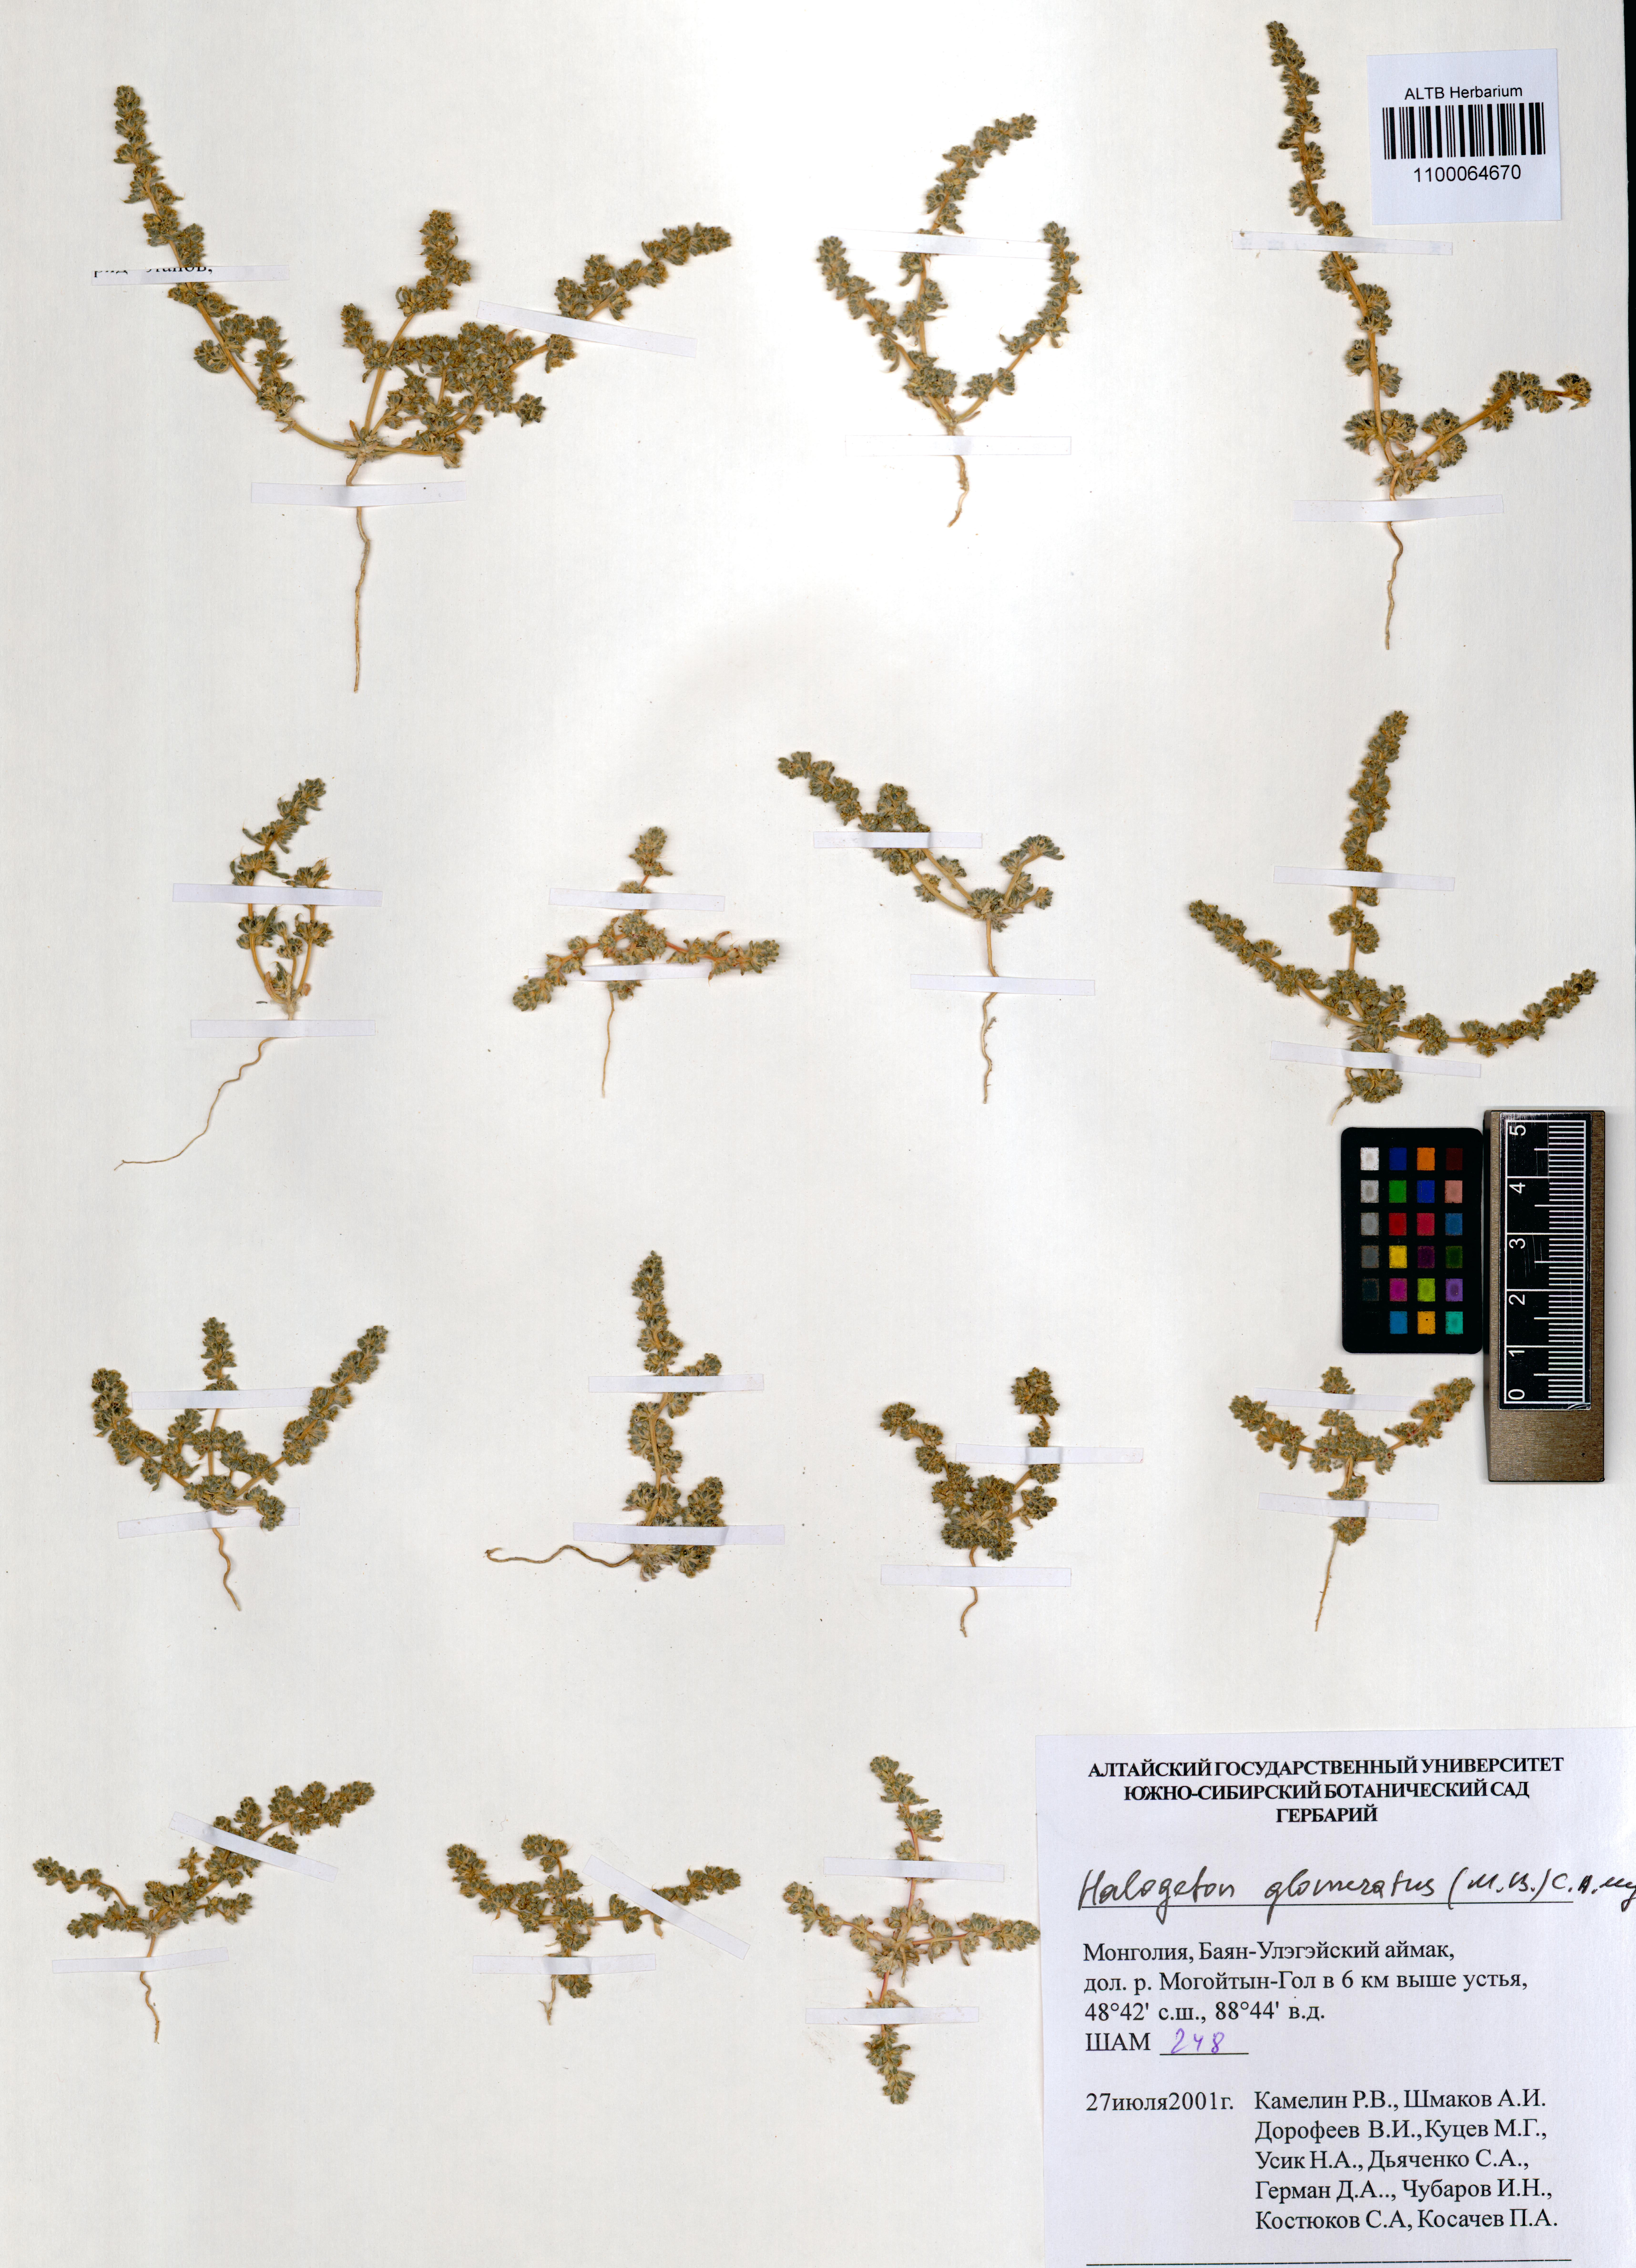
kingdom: Plantae
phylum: Tracheophyta
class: Magnoliopsida
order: Caryophyllales
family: Amaranthaceae
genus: Halogeton
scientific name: Halogeton glomeratus
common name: Saltlover
